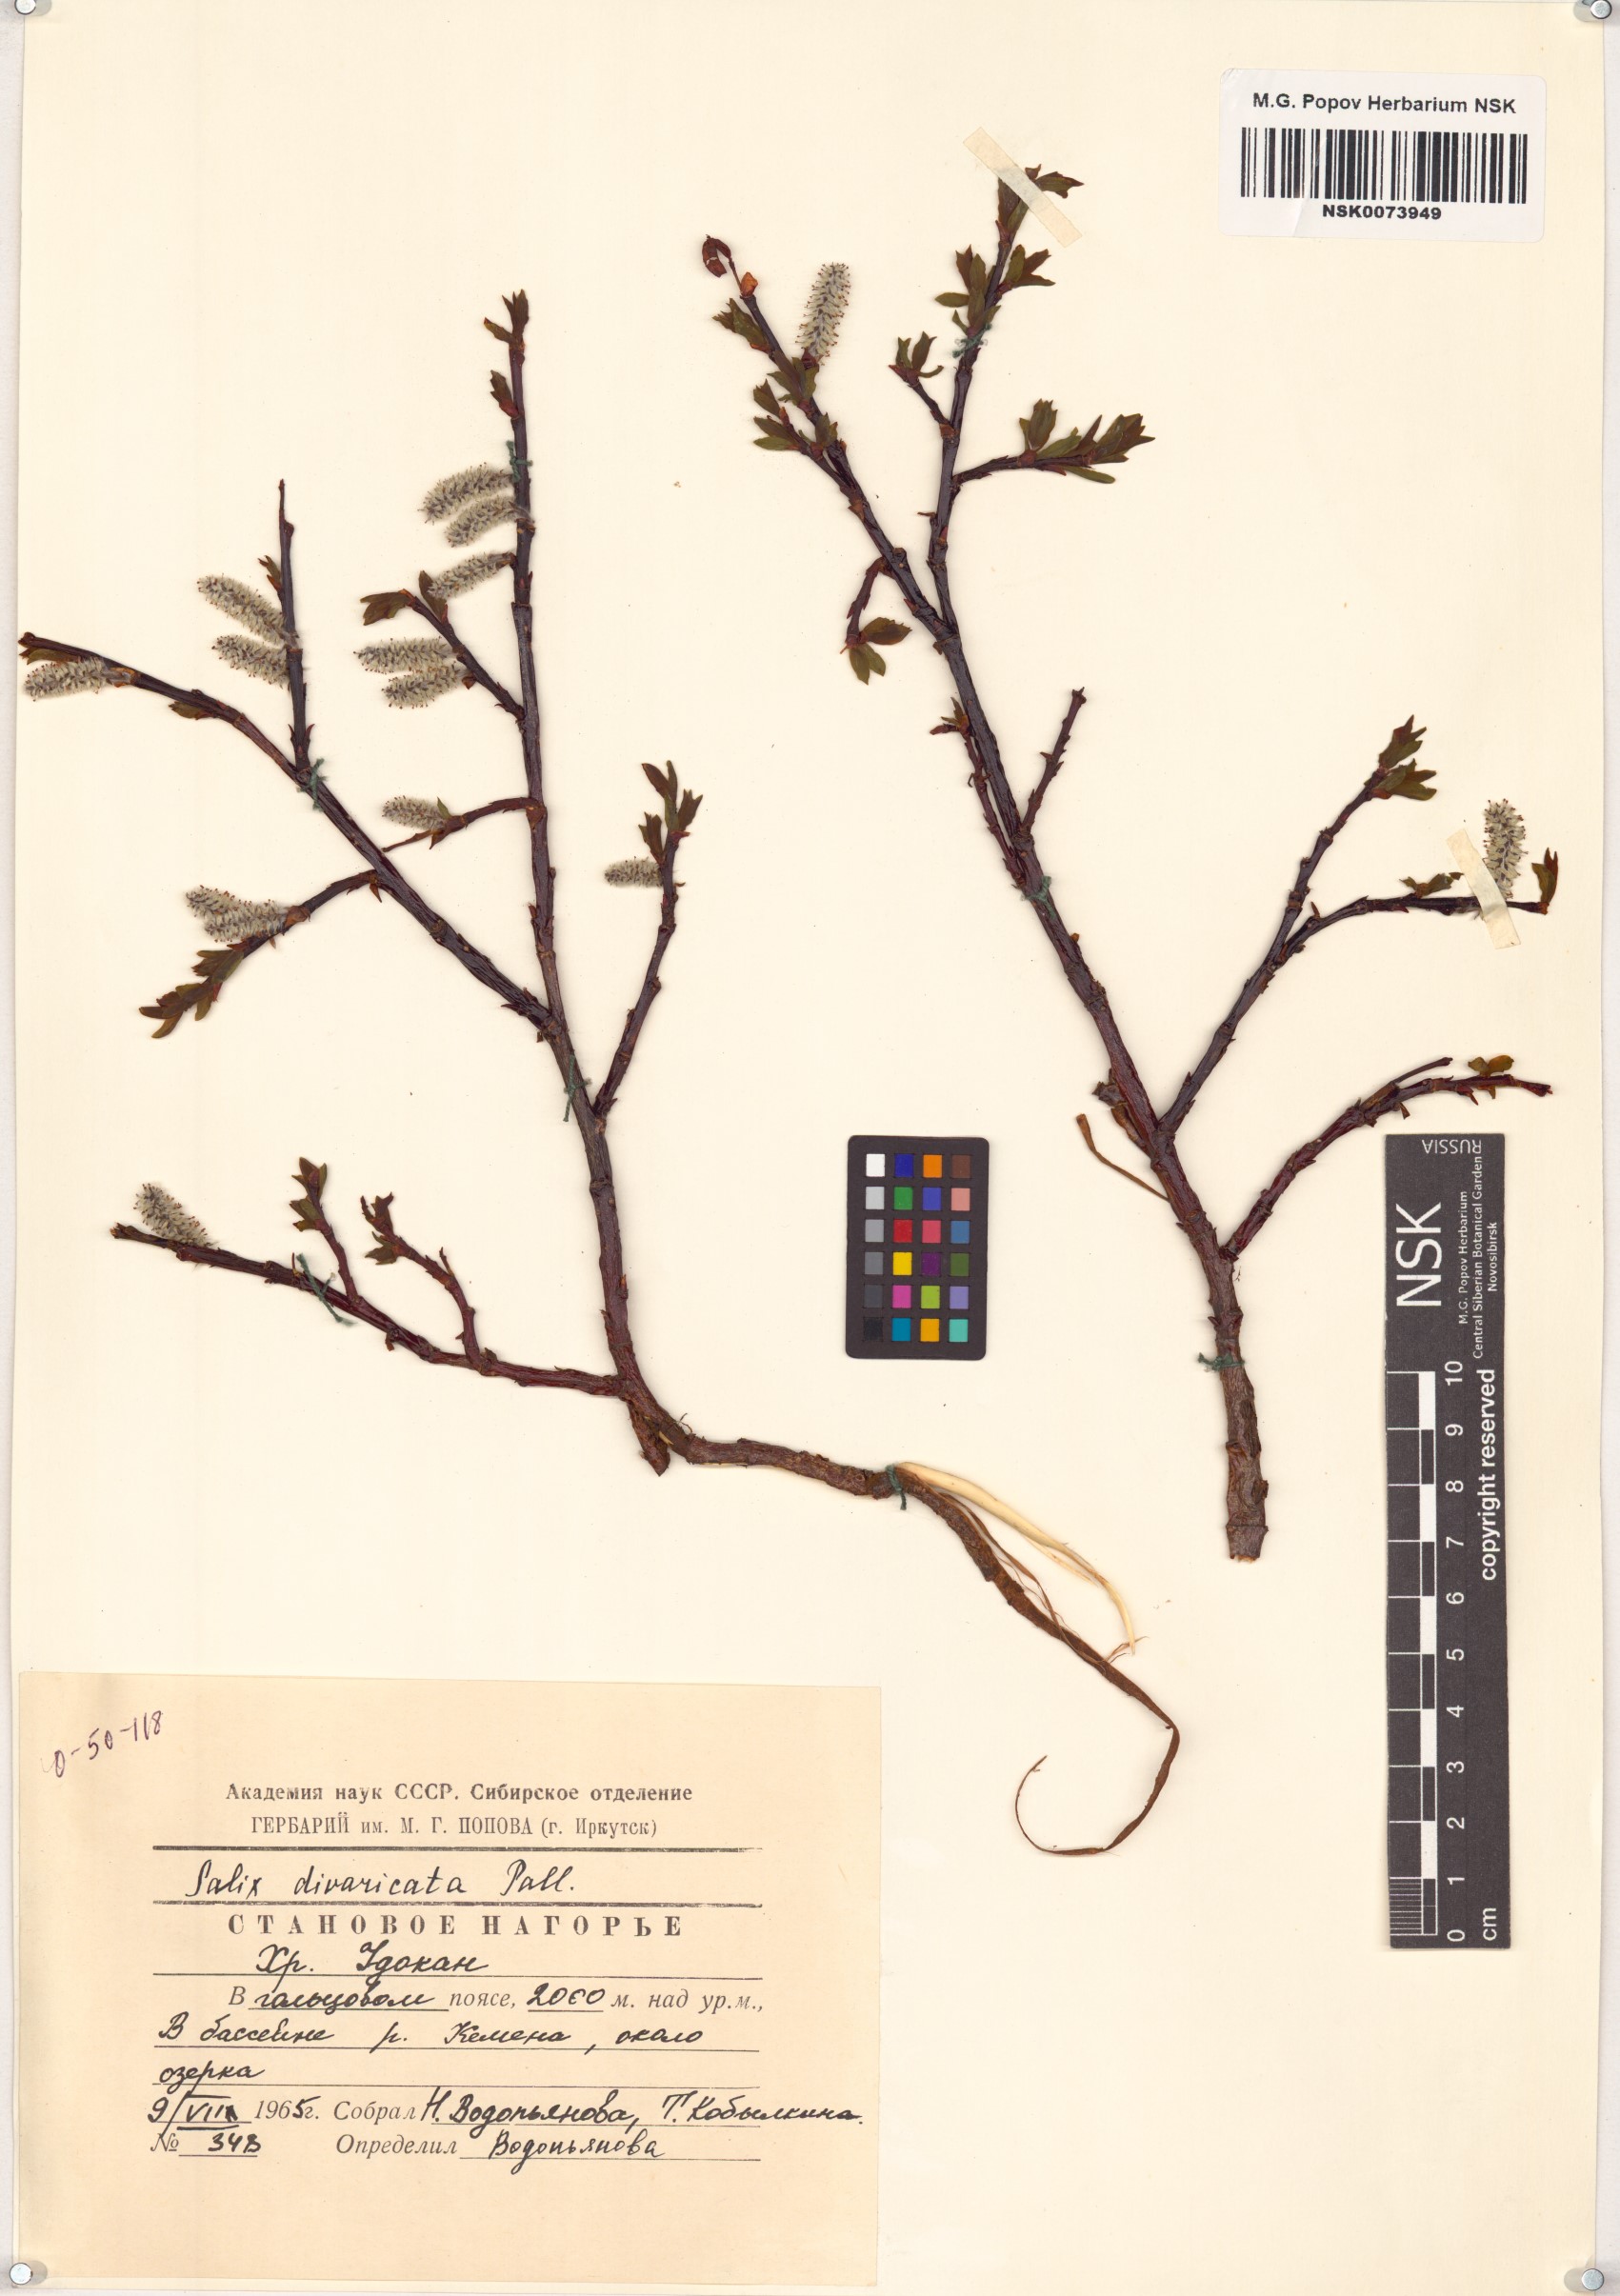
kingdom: Plantae
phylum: Tracheophyta
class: Magnoliopsida
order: Malpighiales
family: Salicaceae
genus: Salix
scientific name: Salix divaricata
